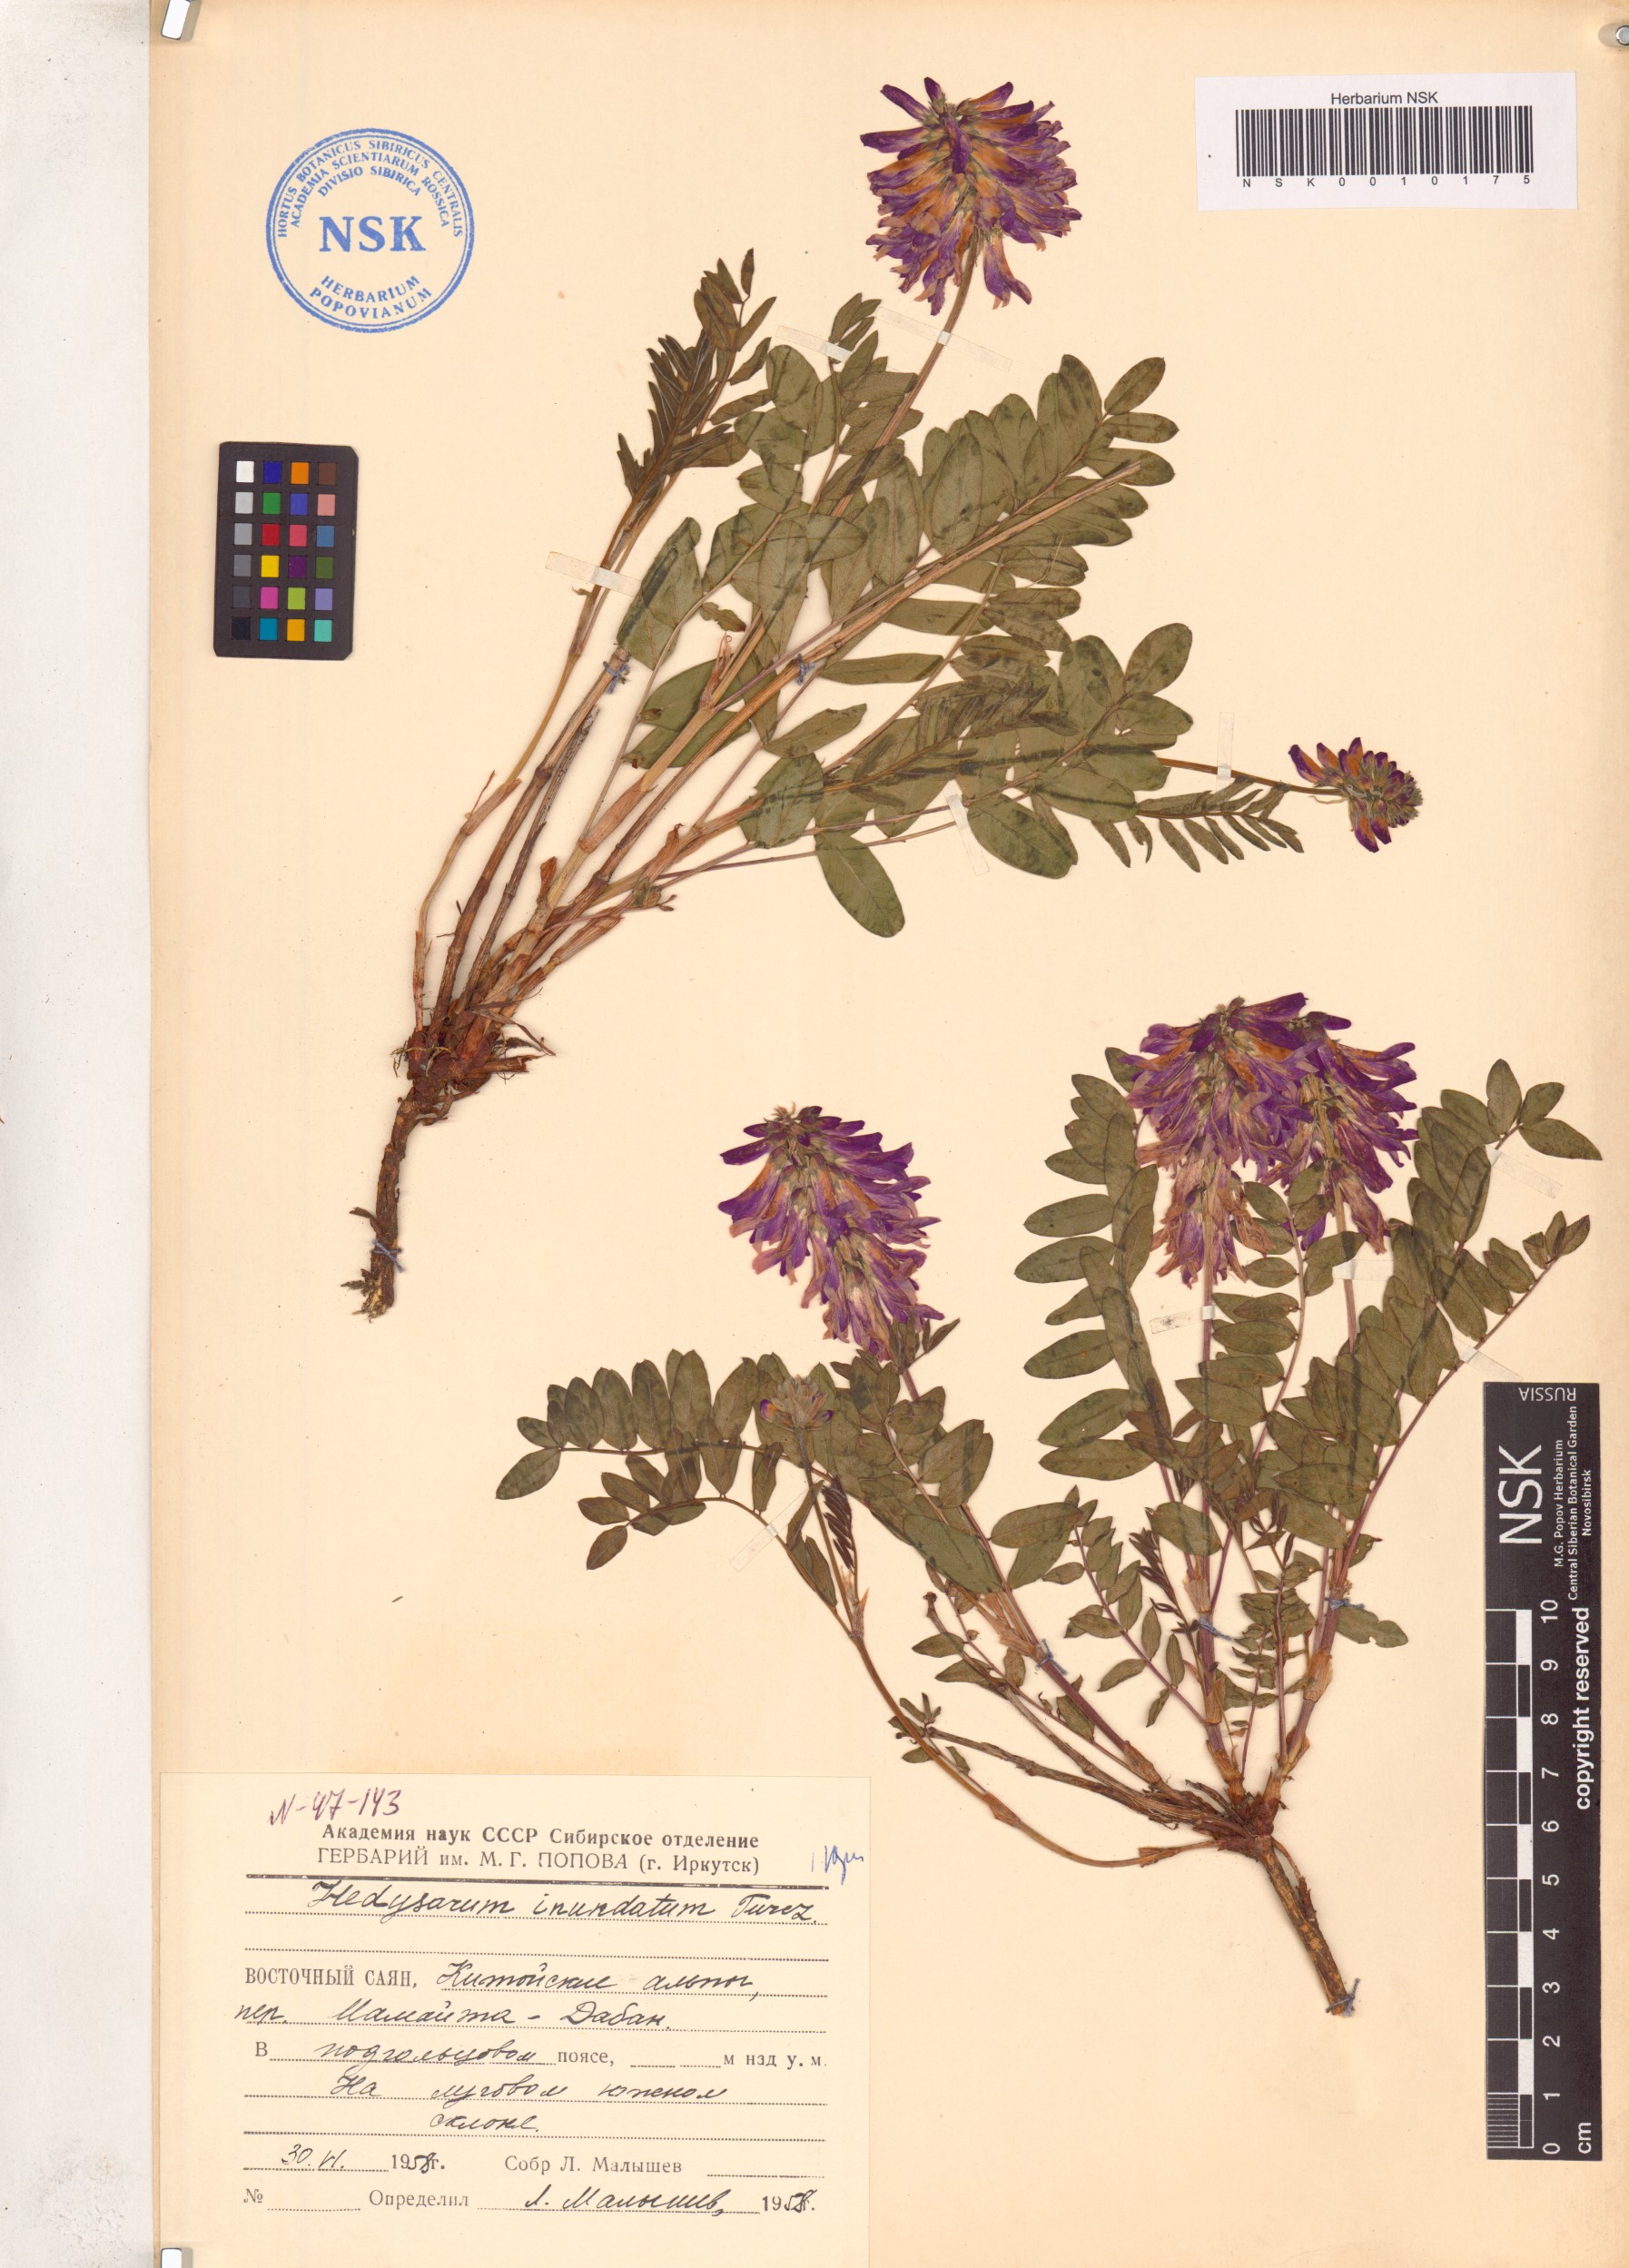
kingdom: Plantae
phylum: Tracheophyta
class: Magnoliopsida
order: Fabales
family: Fabaceae
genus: Hedysarum
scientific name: Hedysarum inundatum
